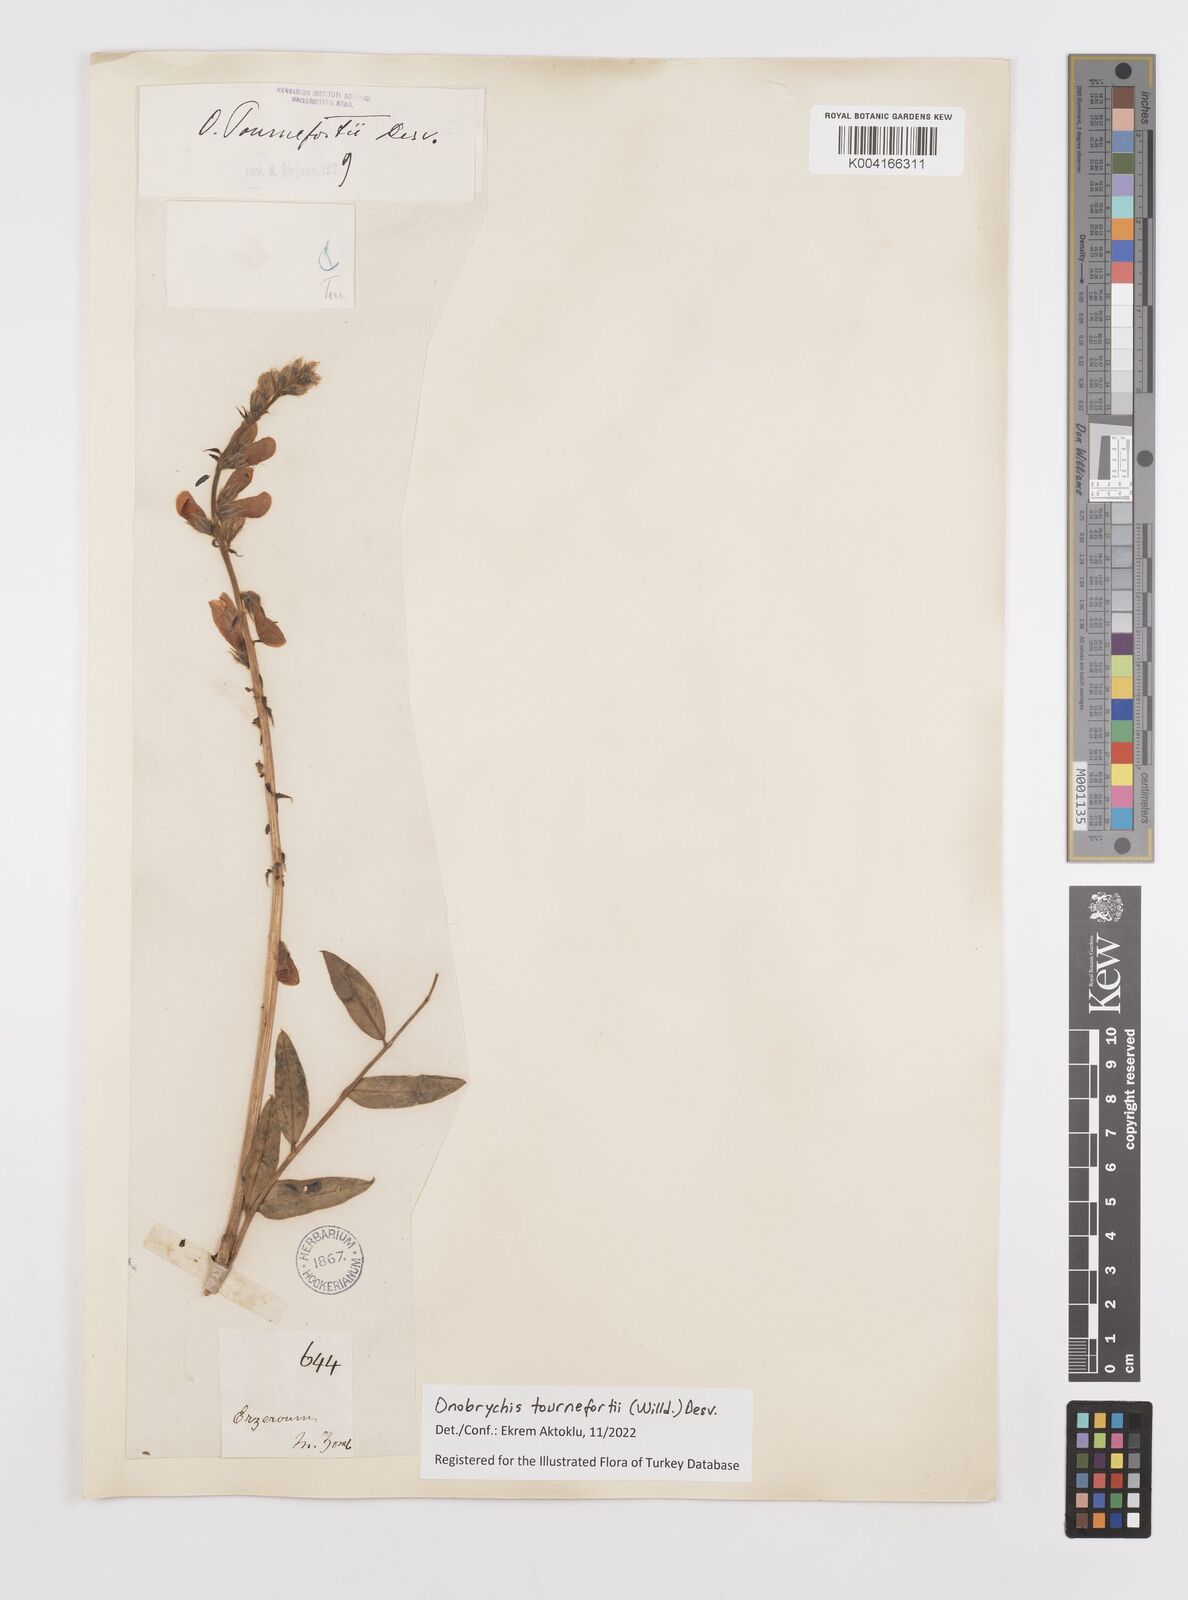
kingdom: Plantae
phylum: Tracheophyta
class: Magnoliopsida
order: Fabales
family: Fabaceae
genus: Onobrychis
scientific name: Onobrychis tournefortii
